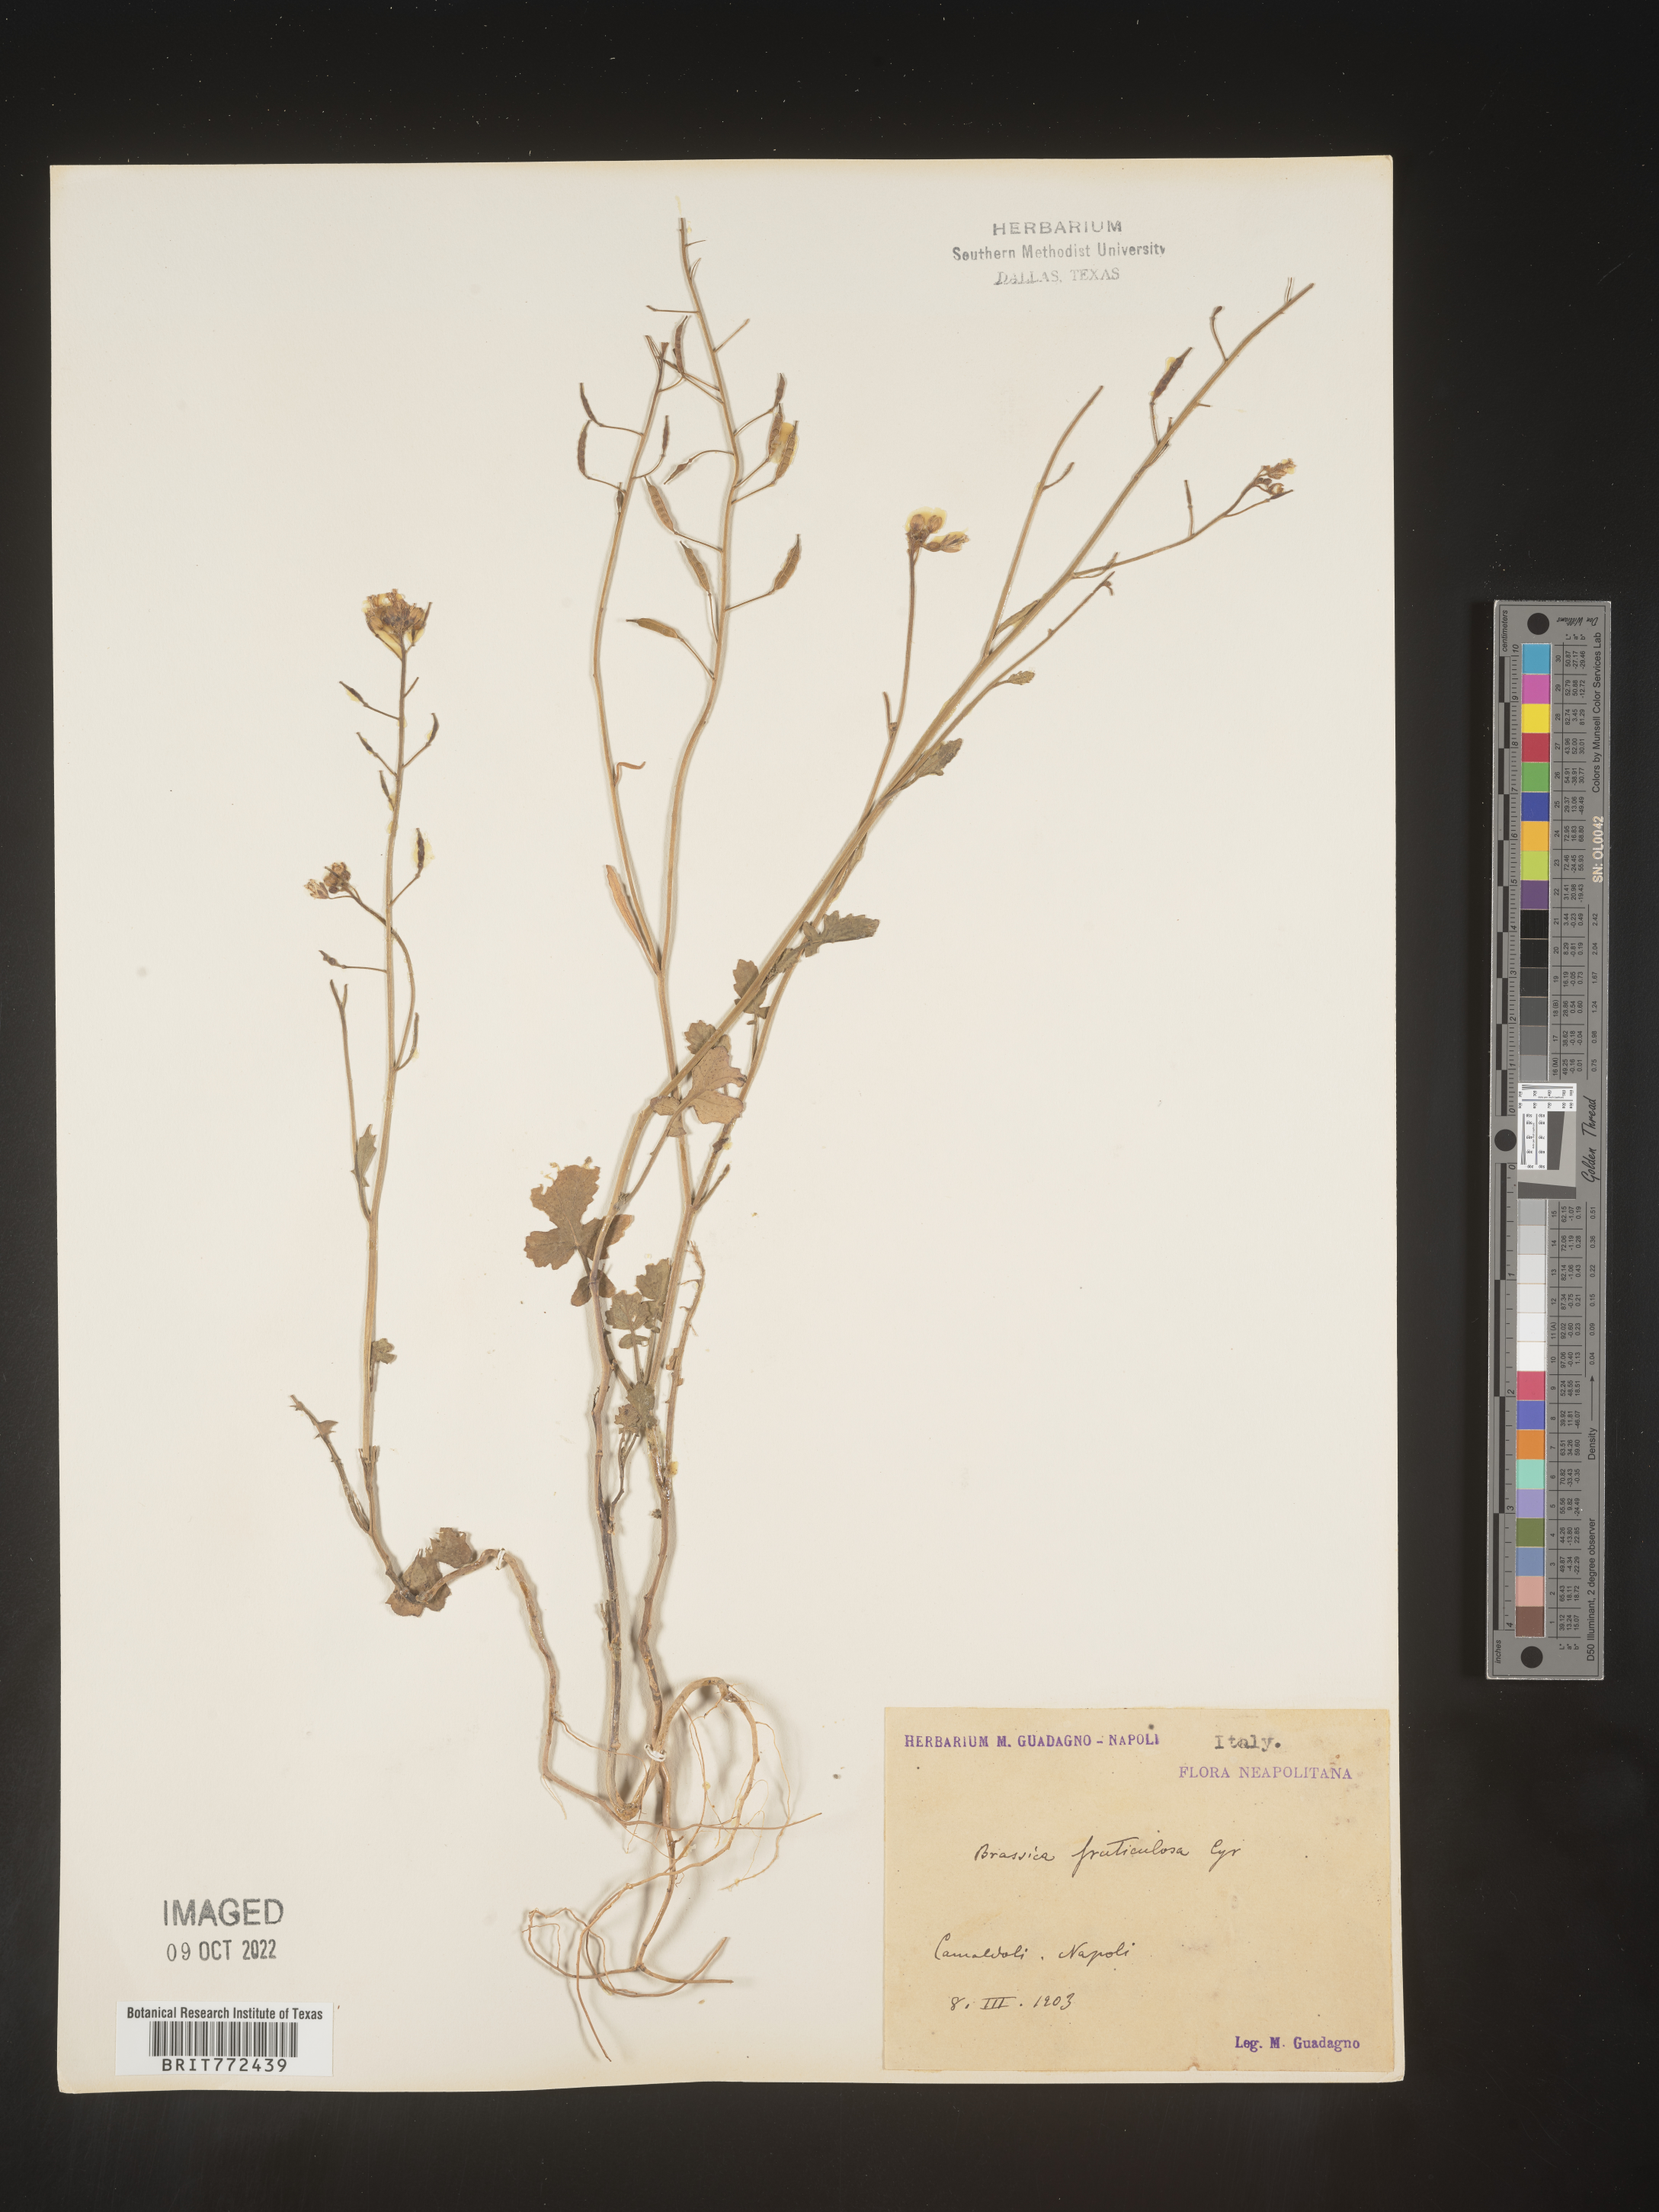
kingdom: Plantae
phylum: Tracheophyta
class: Magnoliopsida
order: Brassicales
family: Brassicaceae
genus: Brassica
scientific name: Brassica
